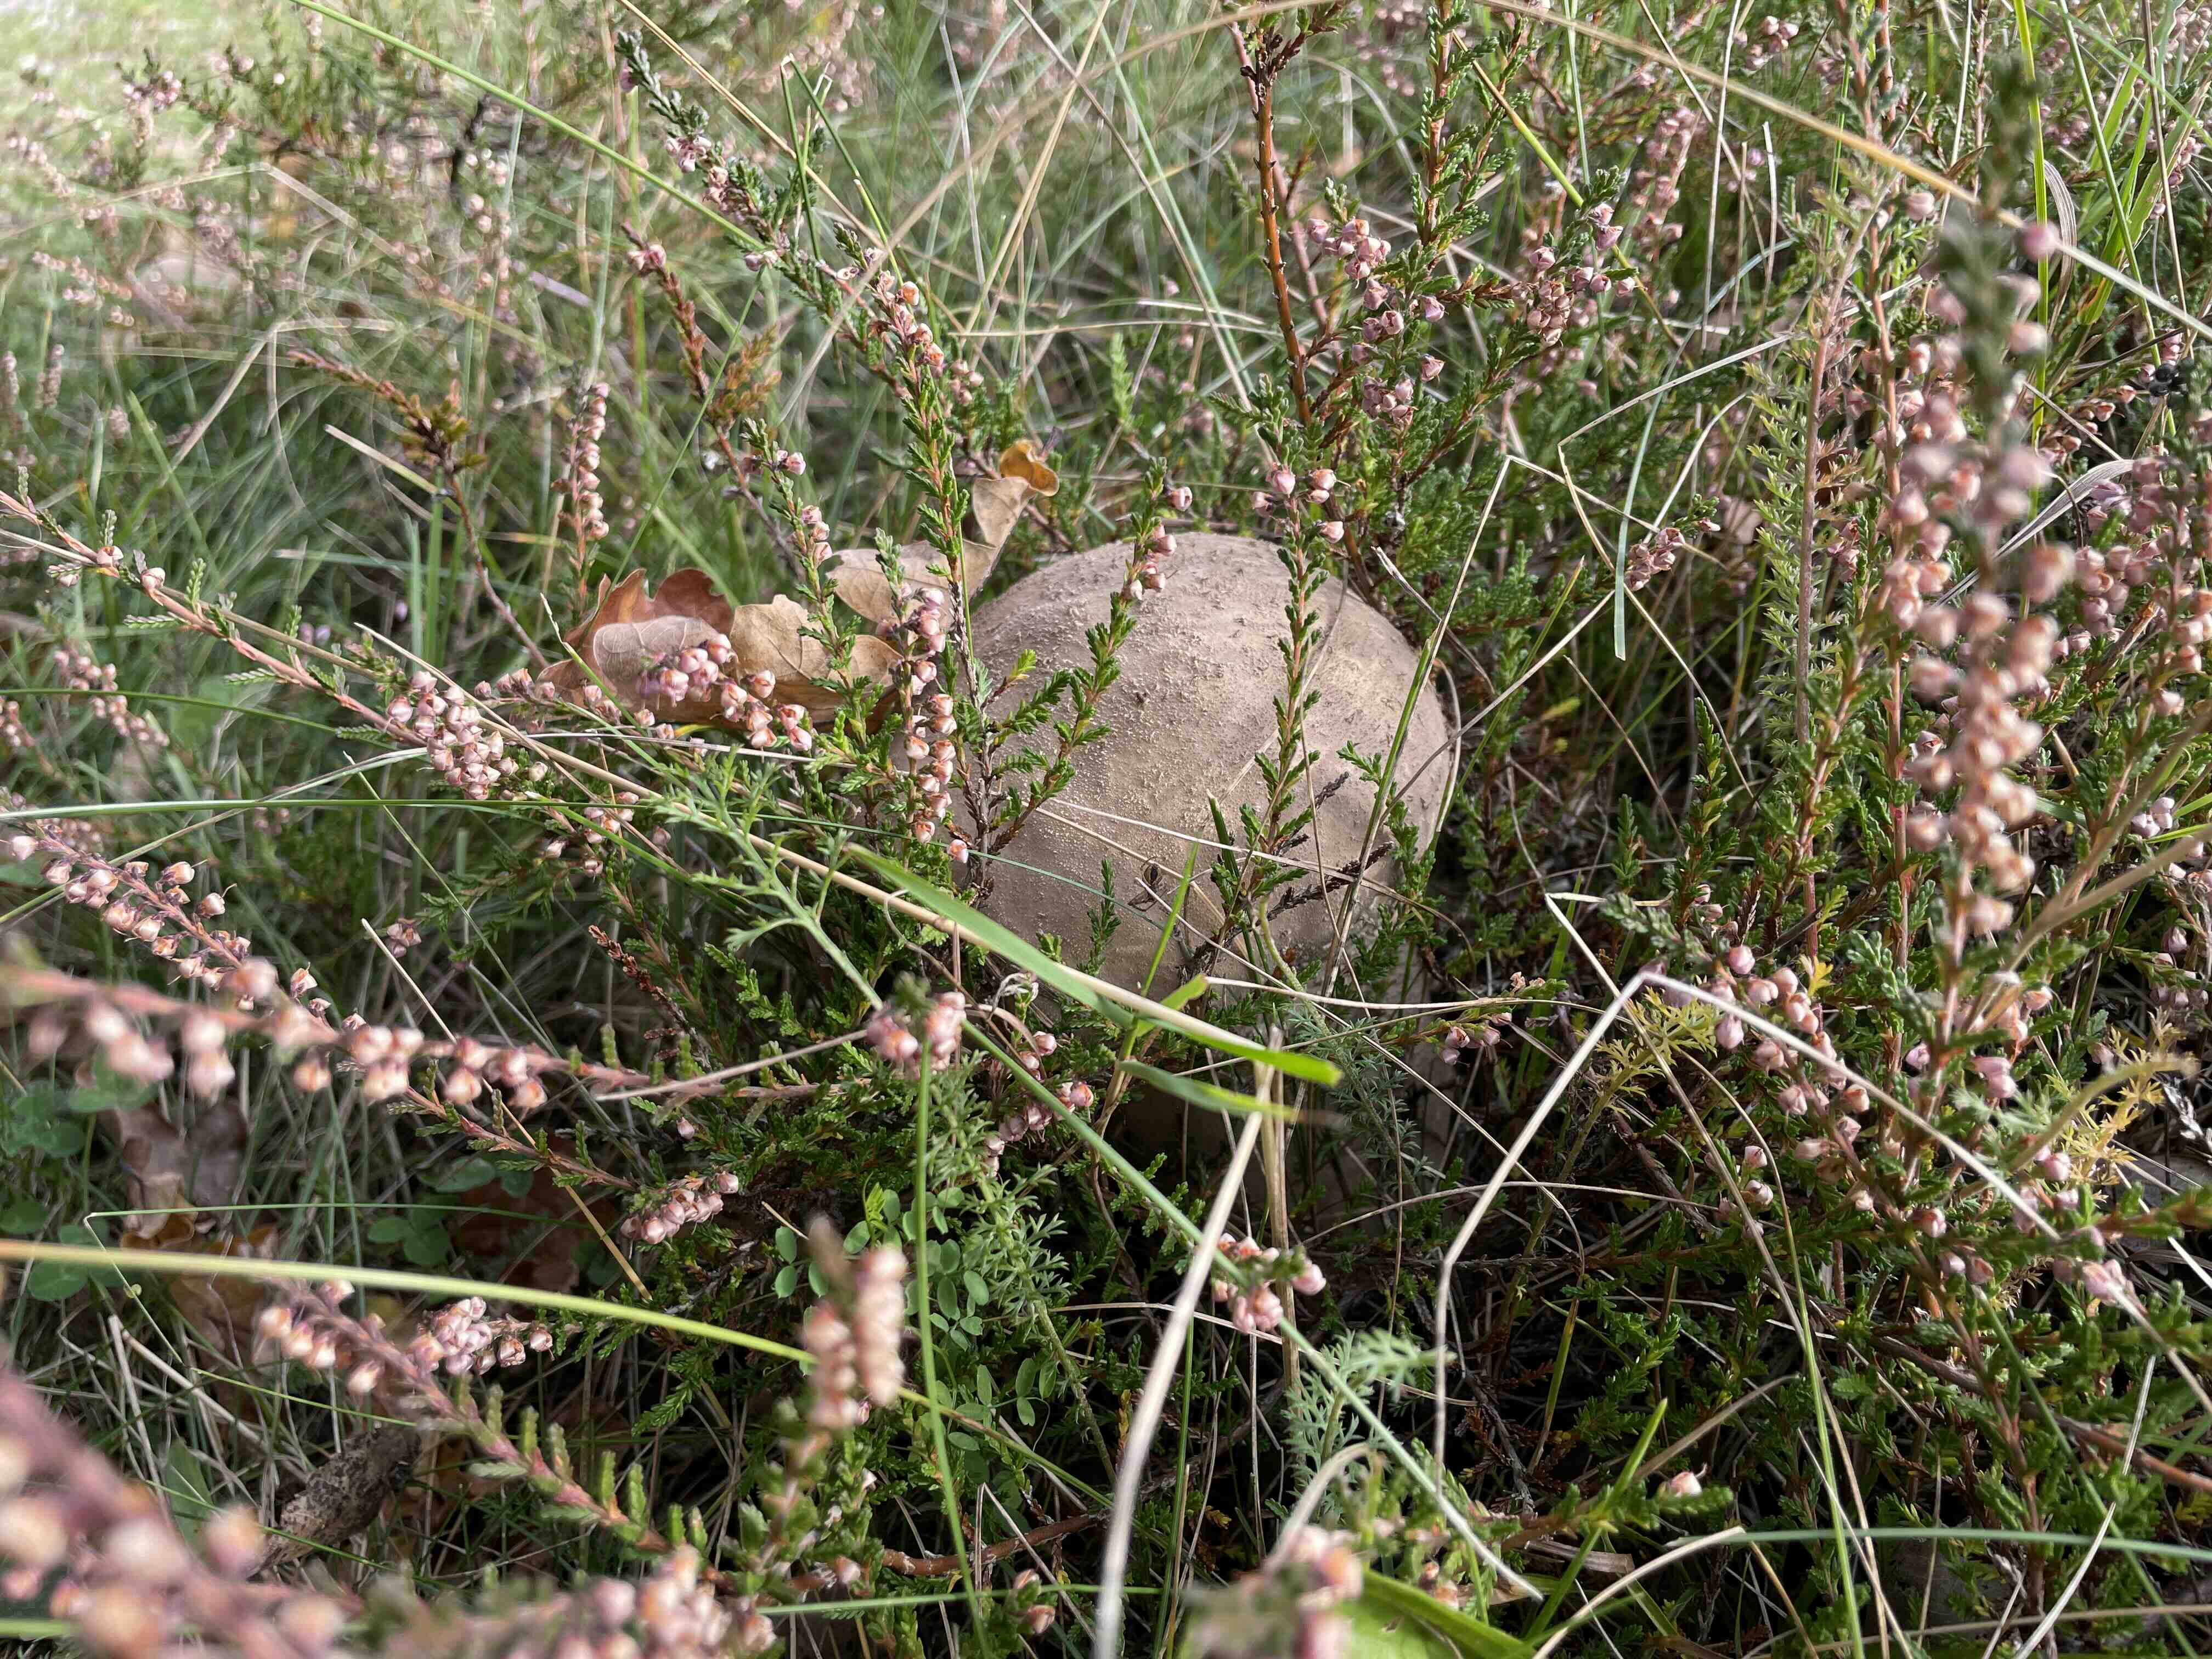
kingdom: Fungi
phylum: Basidiomycota
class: Agaricomycetes
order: Agaricales
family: Lycoperdaceae
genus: Lycoperdon
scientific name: Lycoperdon excipuliforme
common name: højstokket støvbold
